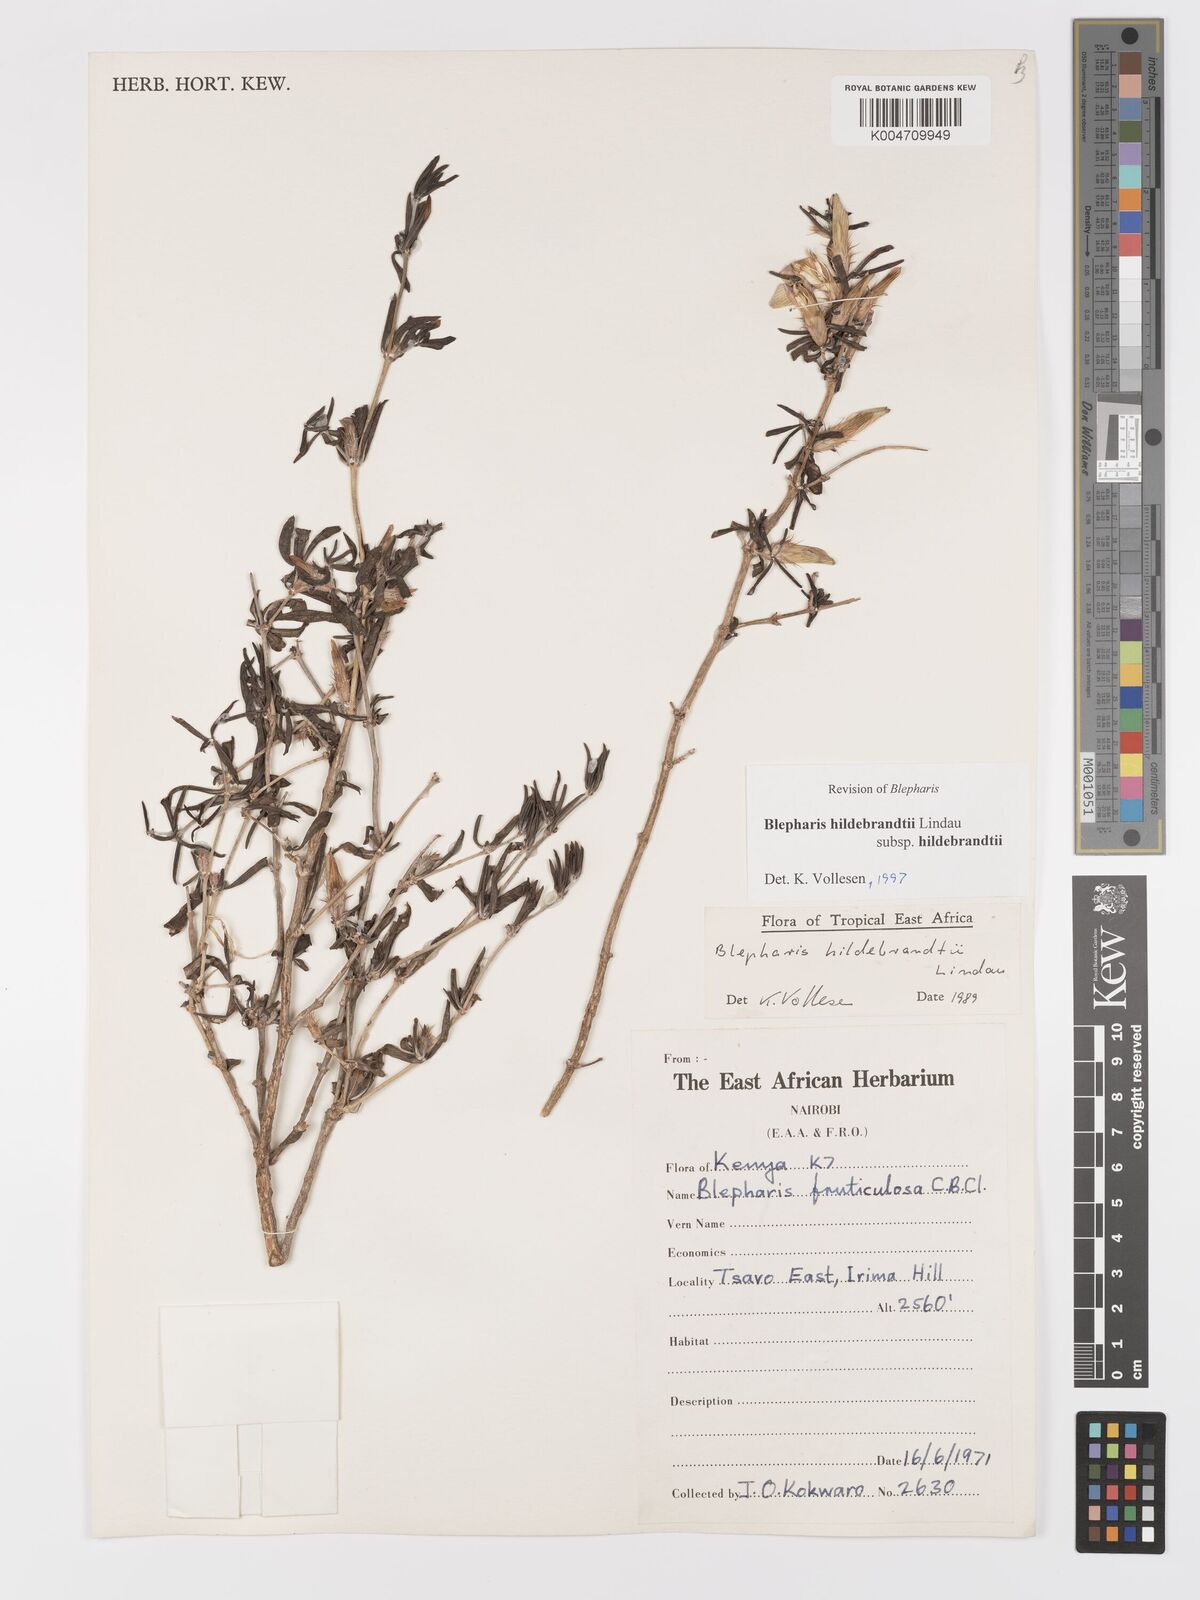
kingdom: Plantae
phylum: Tracheophyta
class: Magnoliopsida
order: Lamiales
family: Acanthaceae
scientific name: Acanthaceae
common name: Acanthaceae
